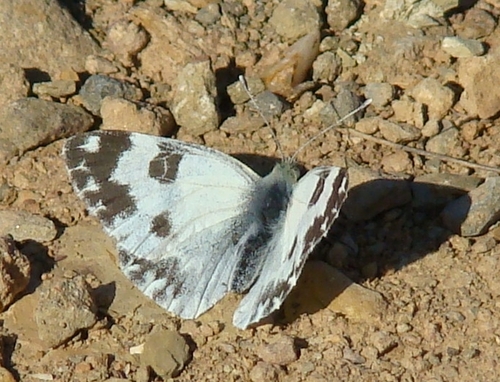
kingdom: Animalia
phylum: Arthropoda
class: Insecta
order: Lepidoptera
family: Pieridae
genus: Pontia
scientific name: Pontia daplidice
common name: Bath white
